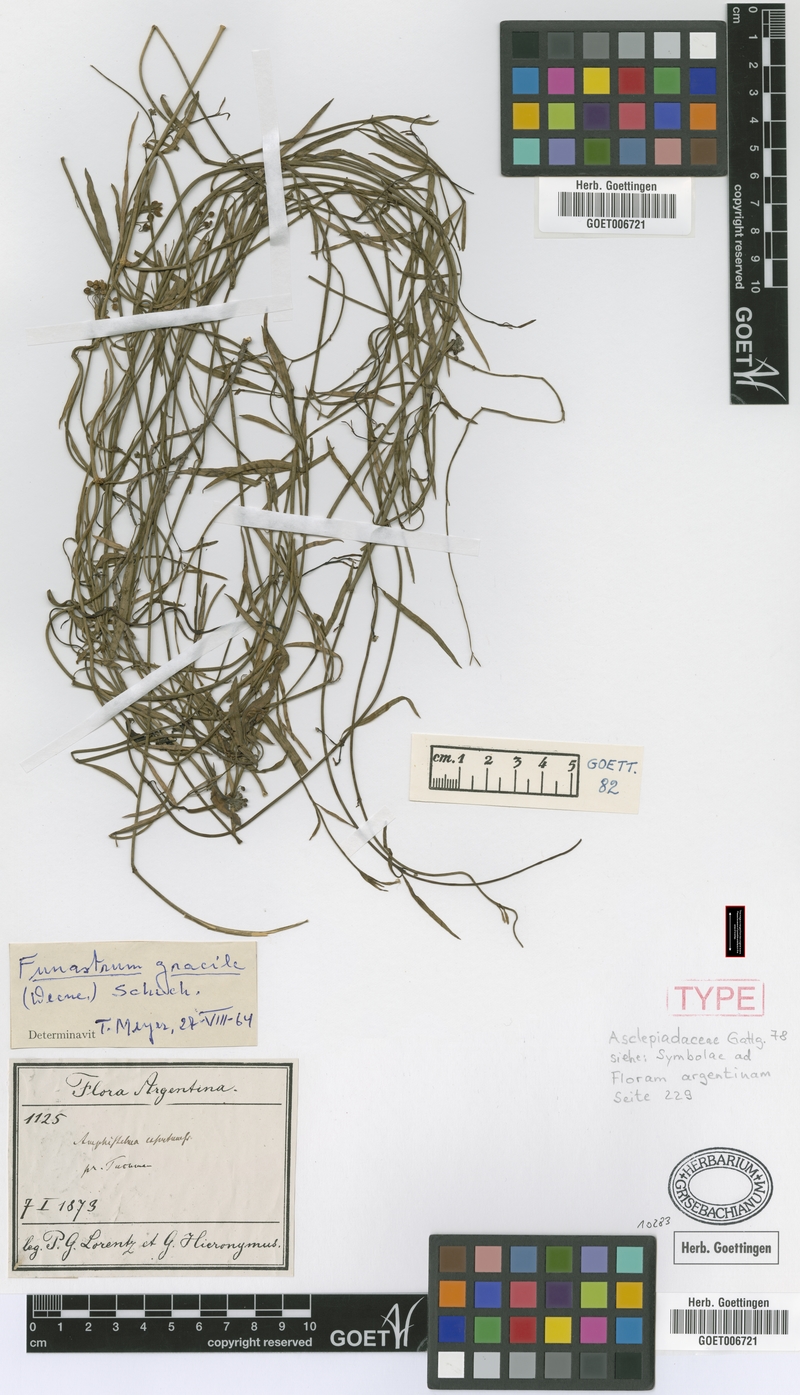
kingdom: Plantae
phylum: Tracheophyta
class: Magnoliopsida
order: Gentianales
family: Apocynaceae
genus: Funastrum
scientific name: Funastrum gracile
